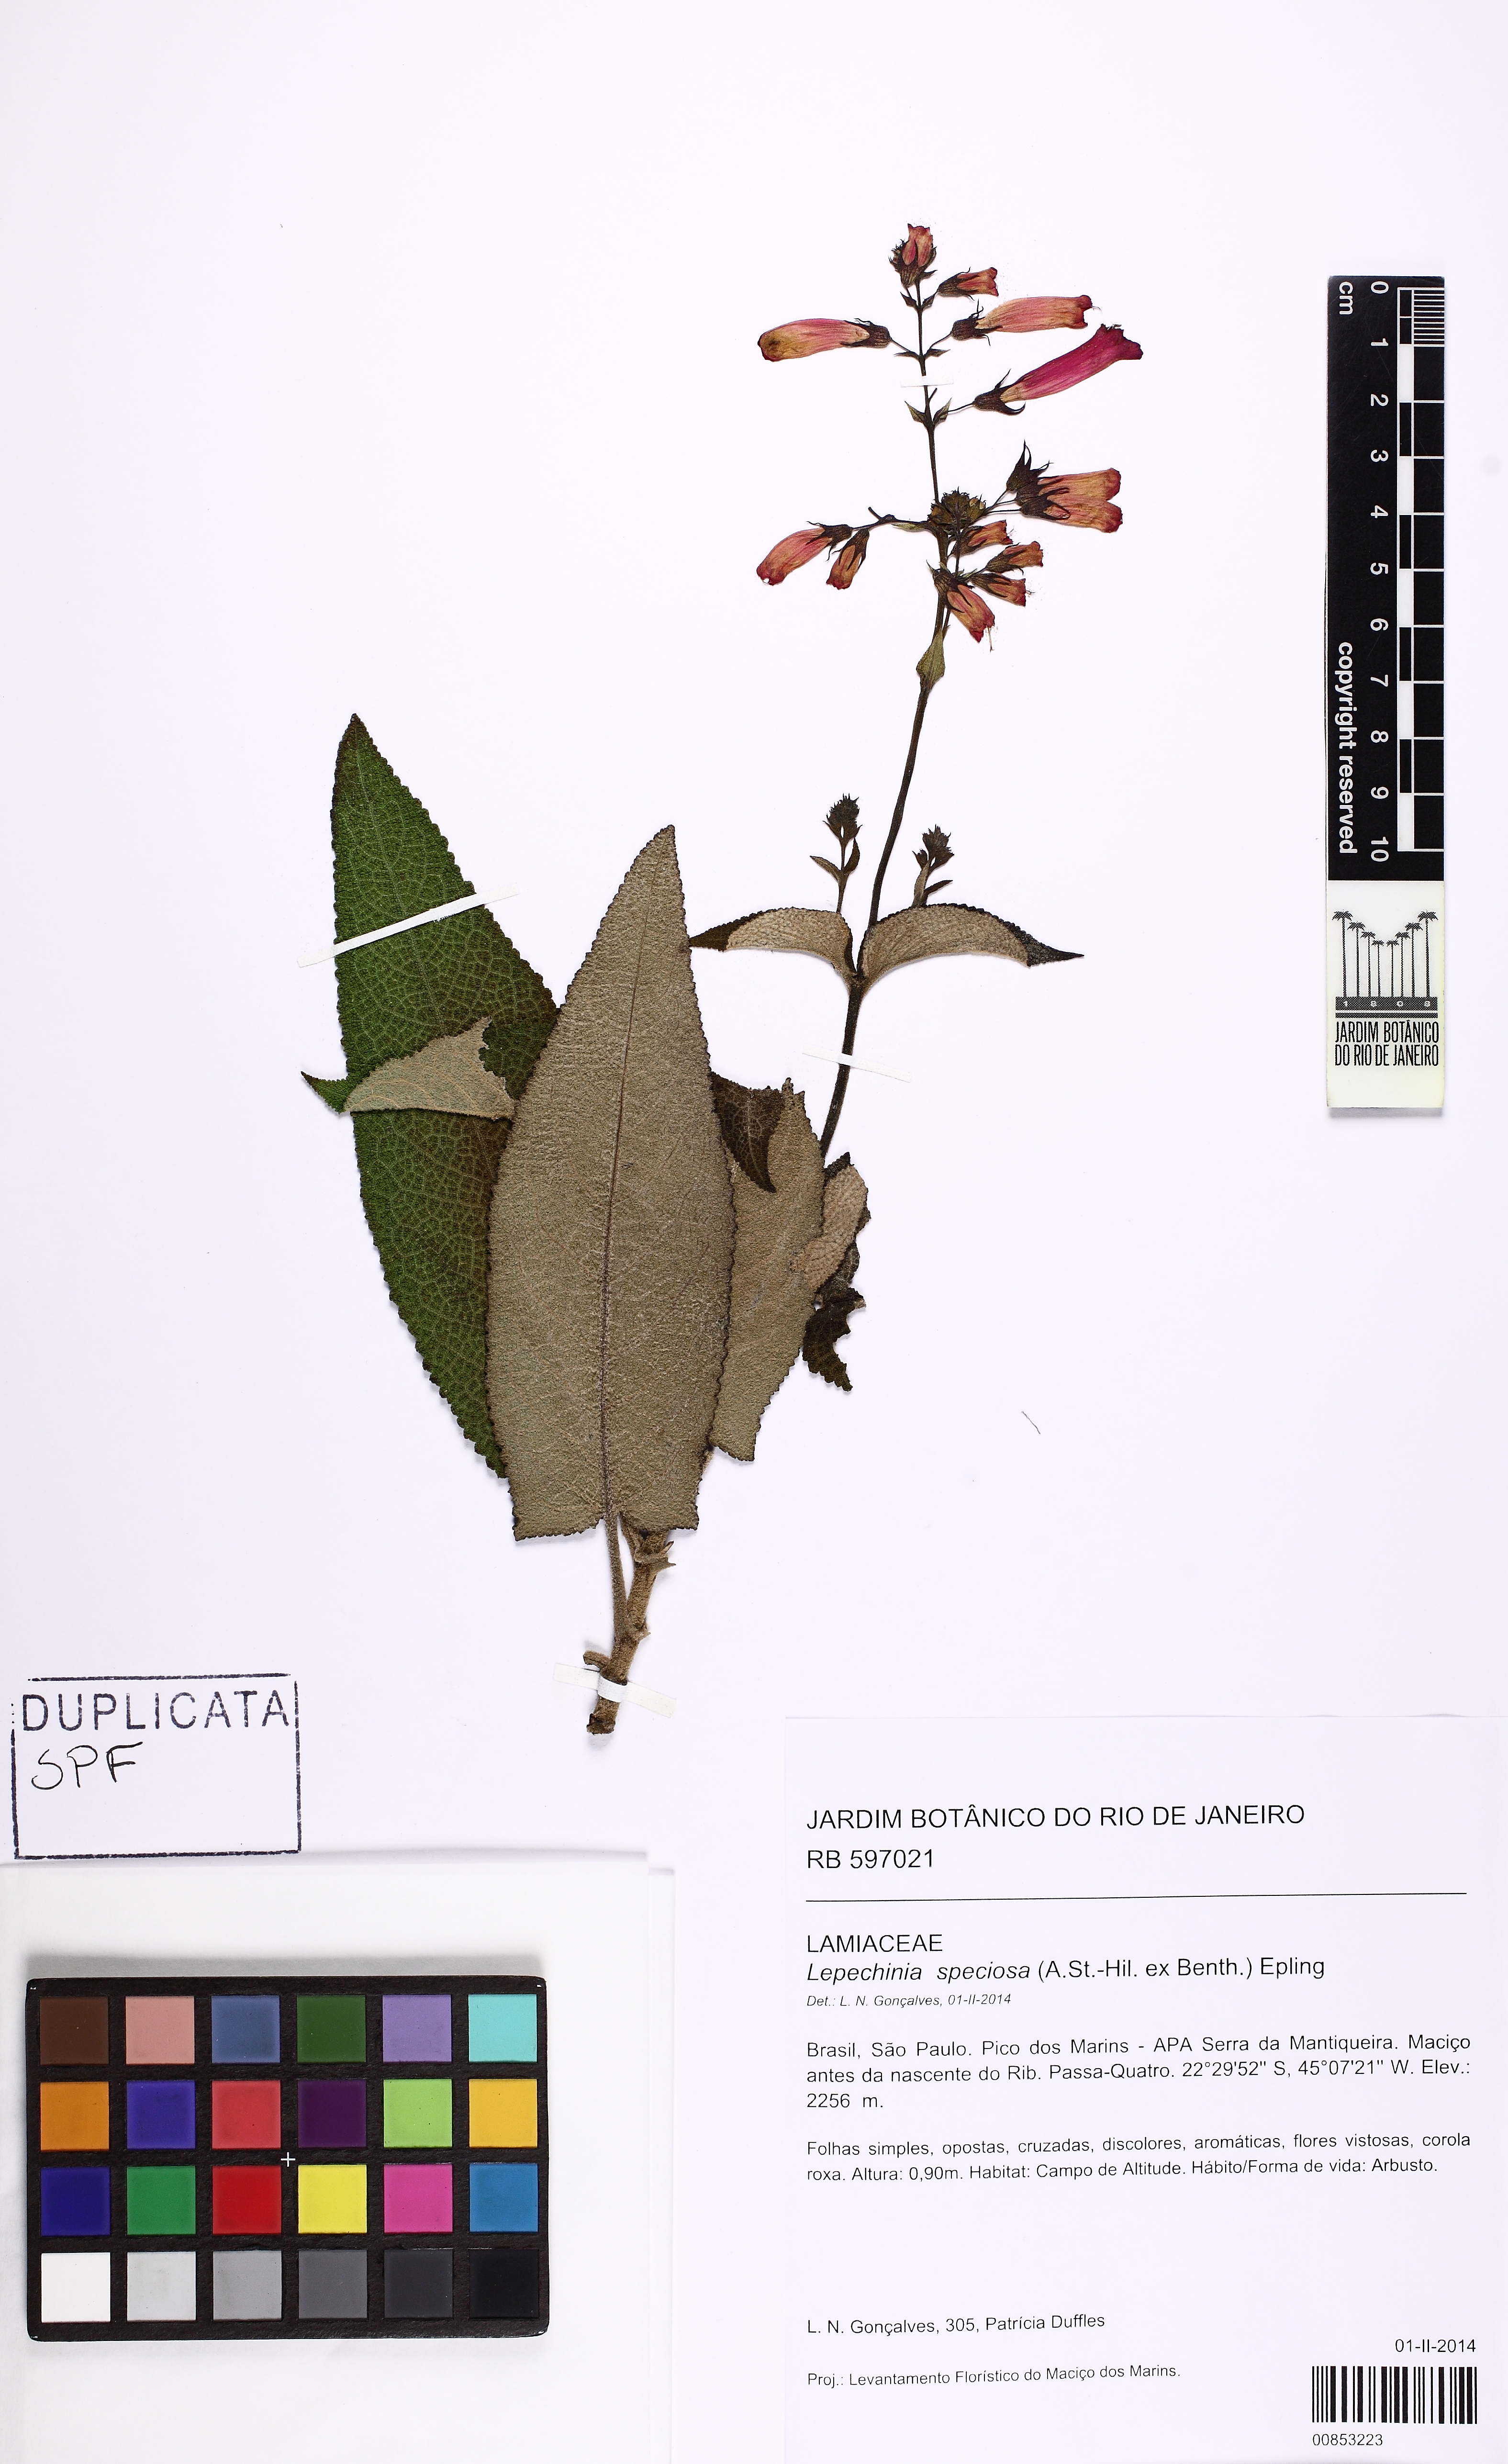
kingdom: Plantae
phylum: Tracheophyta
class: Magnoliopsida
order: Lamiales
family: Lamiaceae
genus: Lepechinia
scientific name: Lepechinia speciosa
